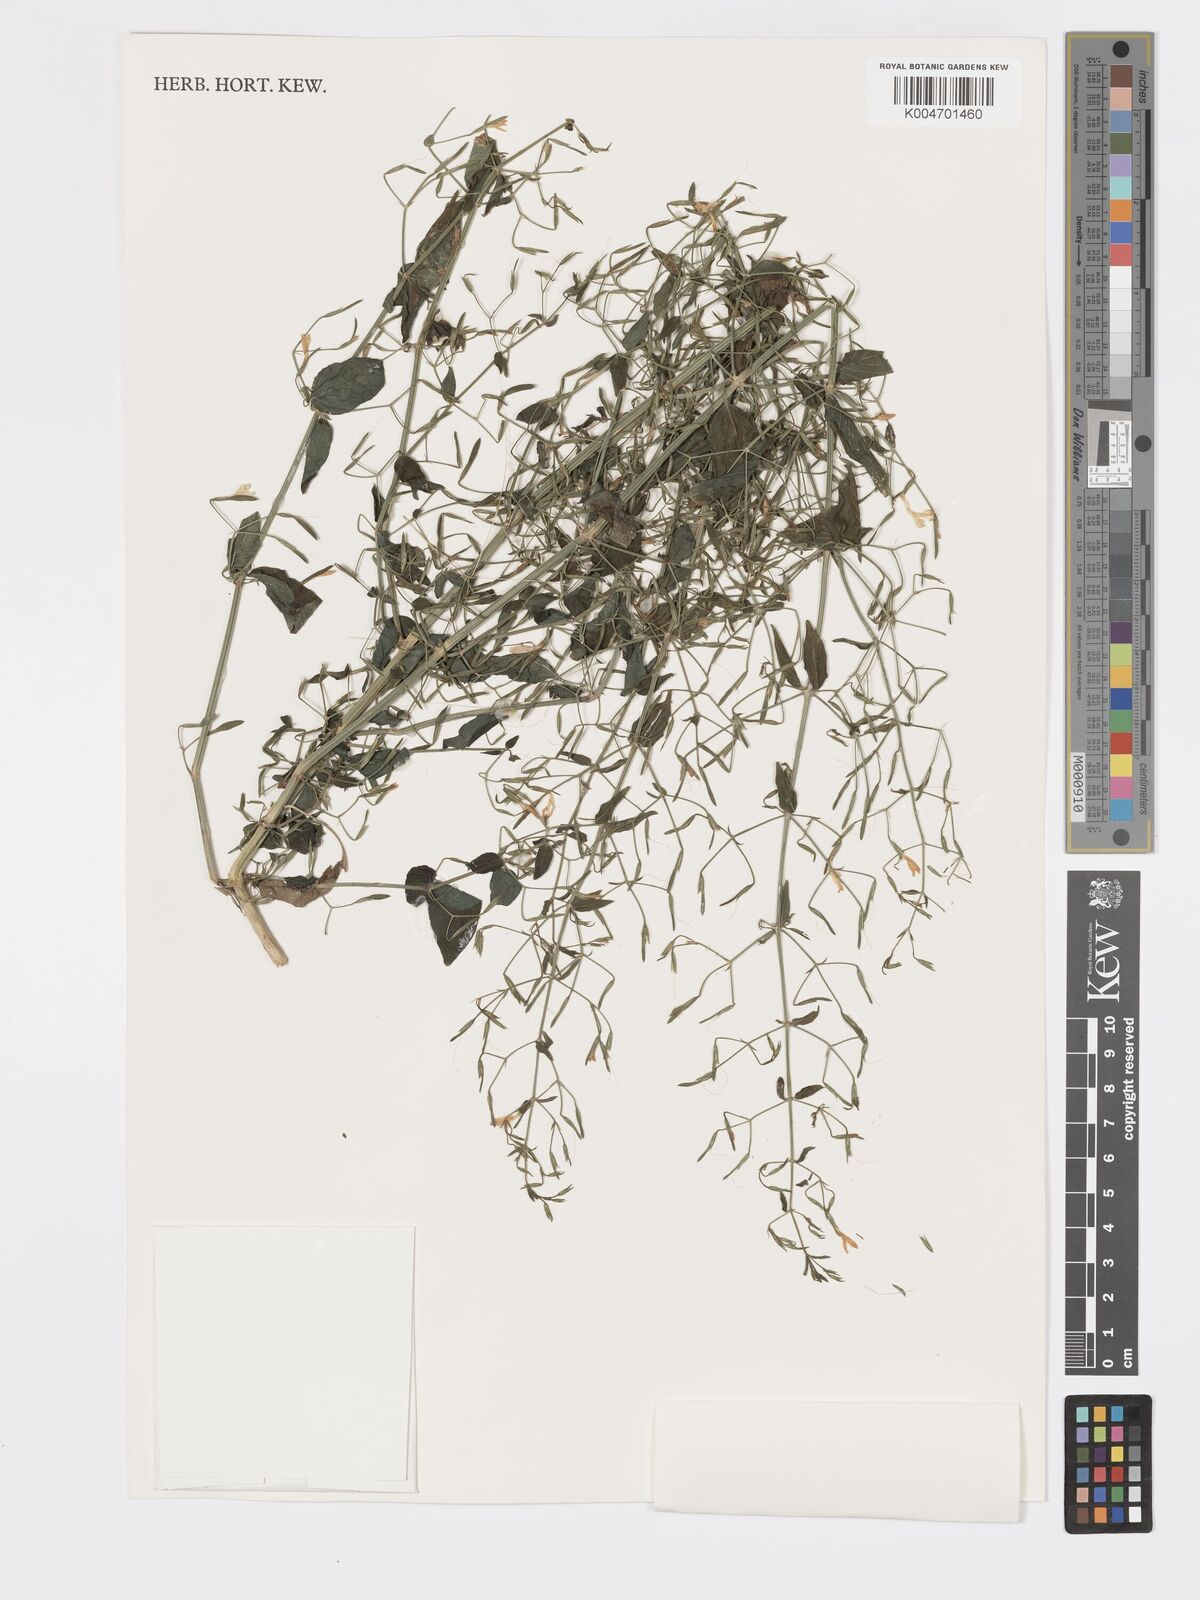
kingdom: Plantae
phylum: Tracheophyta
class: Magnoliopsida
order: Lamiales
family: Acanthaceae
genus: Dicliptera
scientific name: Dicliptera paniculata
